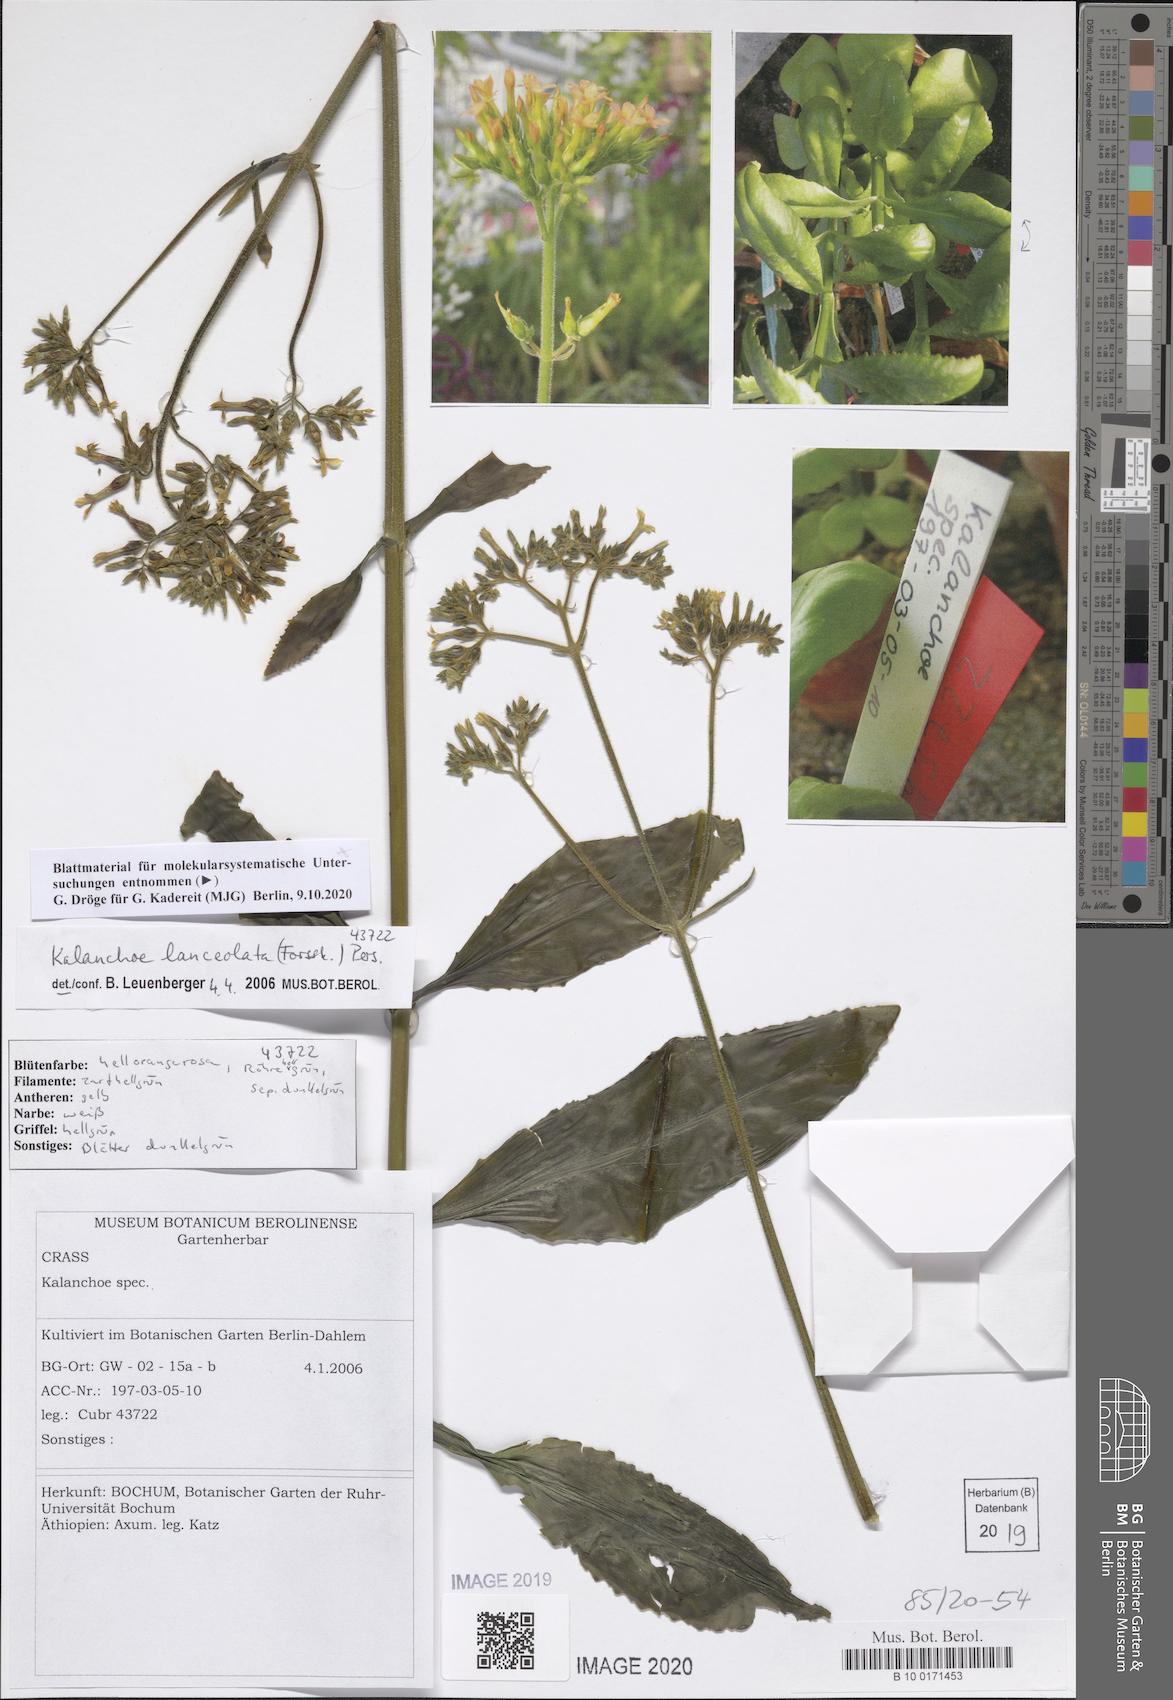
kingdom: Plantae
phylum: Tracheophyta
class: Magnoliopsida
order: Saxifragales
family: Crassulaceae
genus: Kalanchoe
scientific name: Kalanchoe lanceolata
